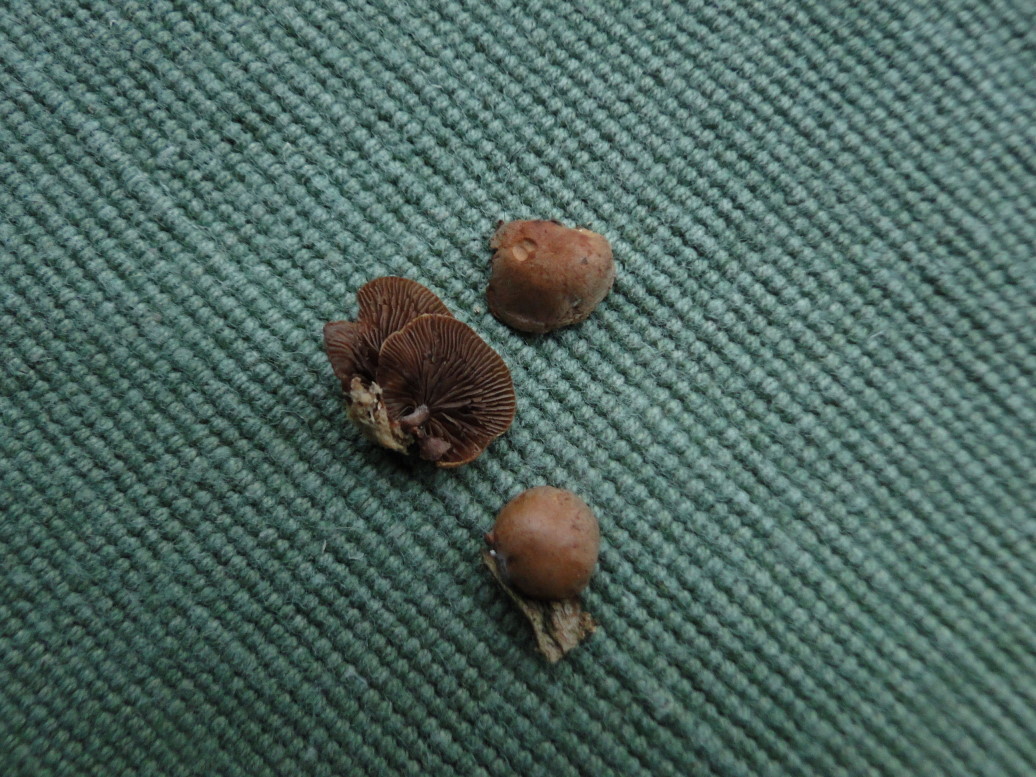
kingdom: Fungi
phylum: Basidiomycota
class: Agaricomycetes
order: Agaricales
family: Strophariaceae
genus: Deconica
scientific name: Deconica horizontalis
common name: ved-stråhat
